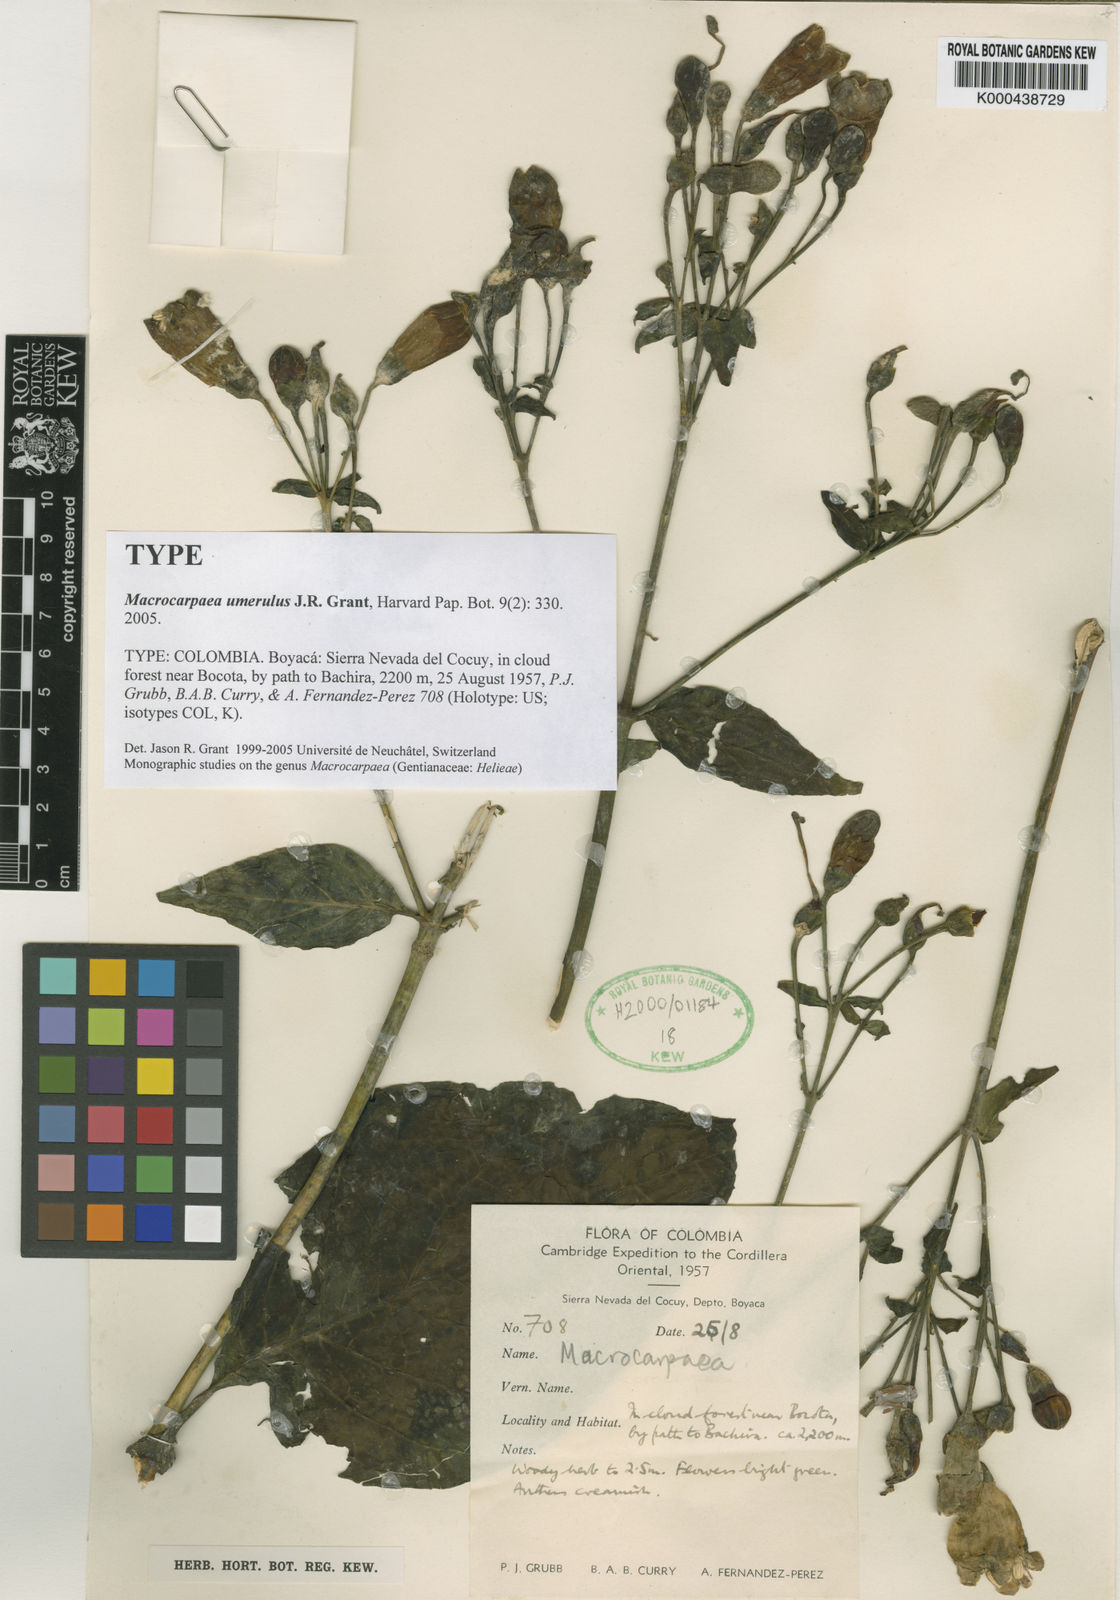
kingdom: Plantae
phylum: Tracheophyta
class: Magnoliopsida
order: Gentianales
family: Gentianaceae
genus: Macrocarpaea
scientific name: Macrocarpaea umerulus
